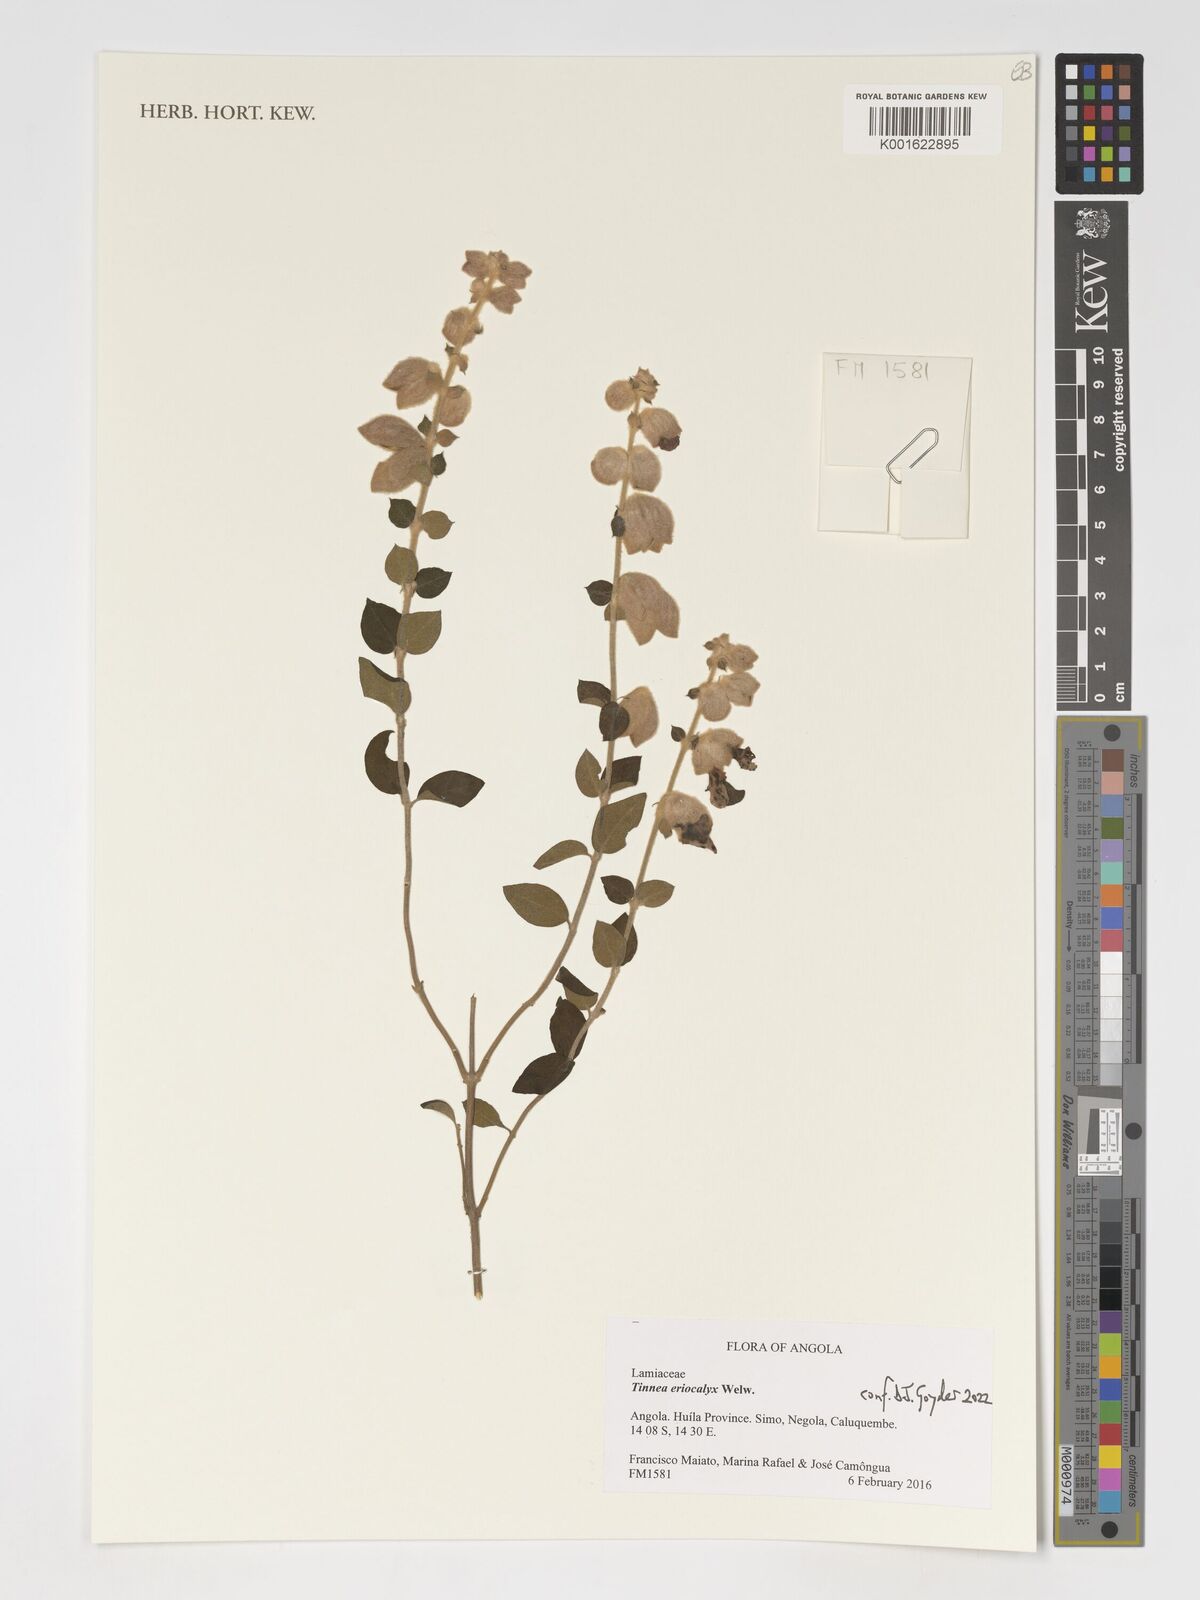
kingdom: Plantae
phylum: Tracheophyta
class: Magnoliopsida
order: Lamiales
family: Lamiaceae
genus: Tinnea
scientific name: Tinnea eriocalyx
